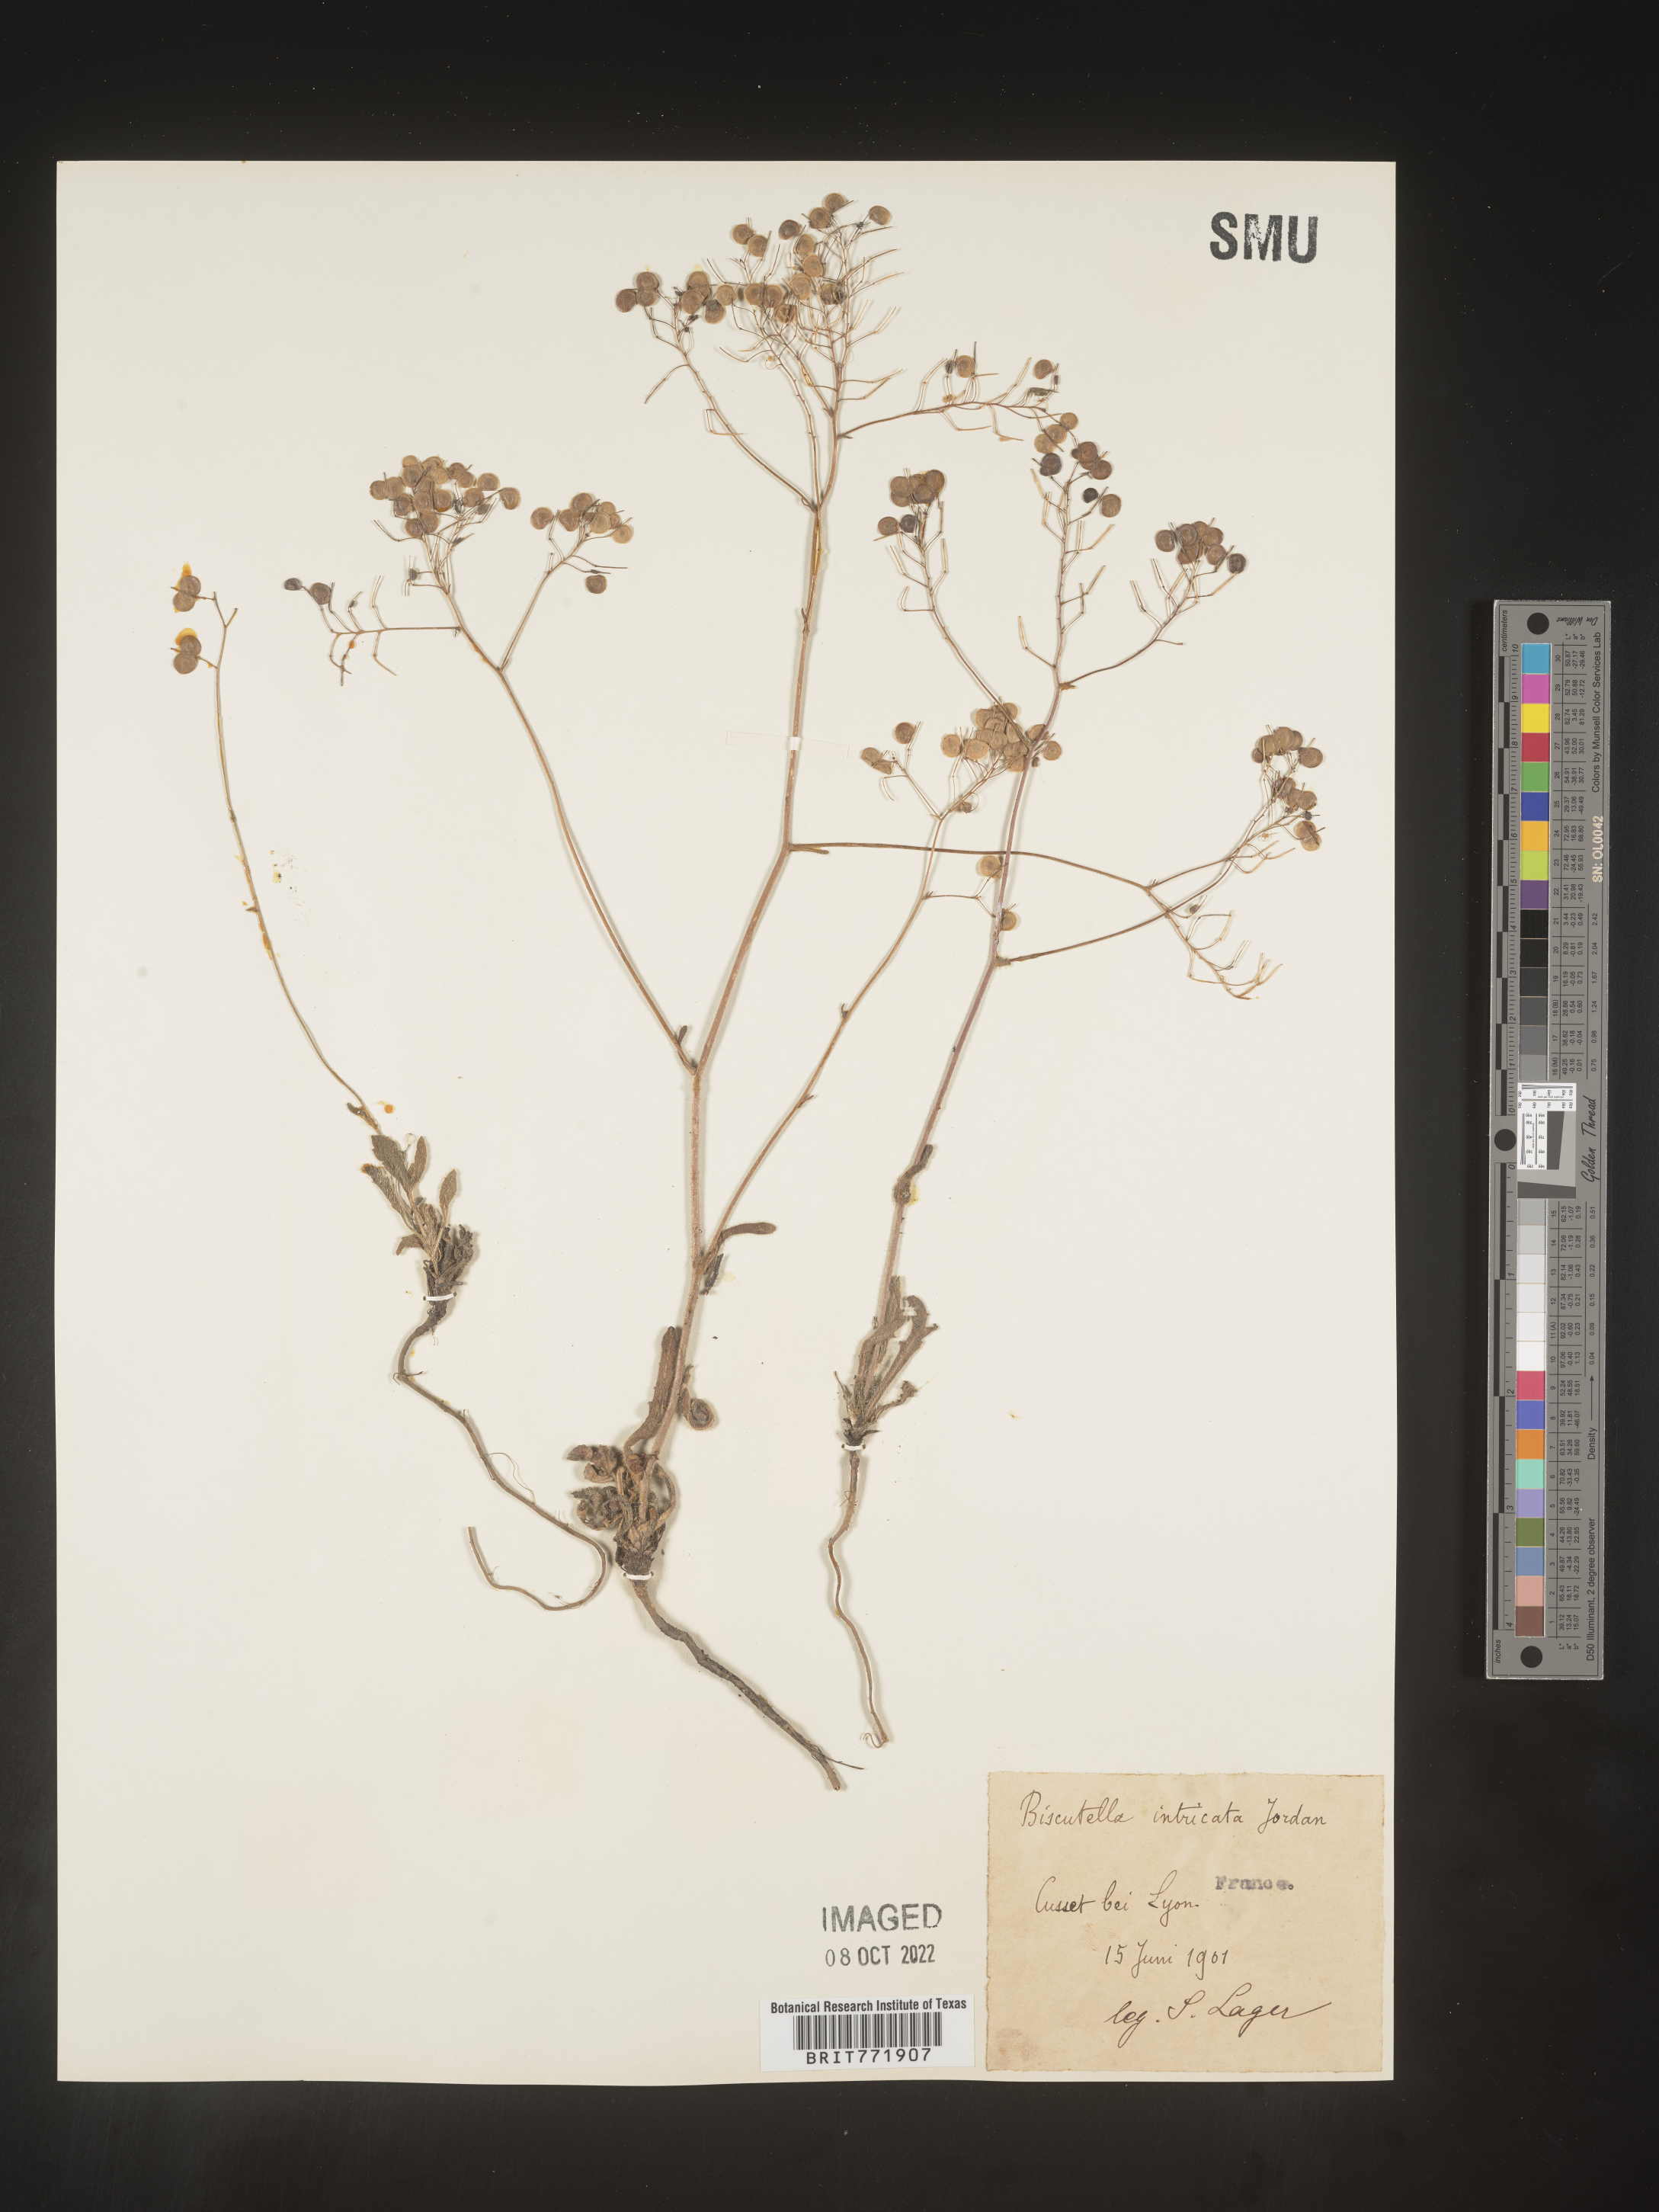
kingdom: Plantae
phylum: Tracheophyta
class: Magnoliopsida
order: Brassicales
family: Brassicaceae
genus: Biscutella
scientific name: Biscutella
